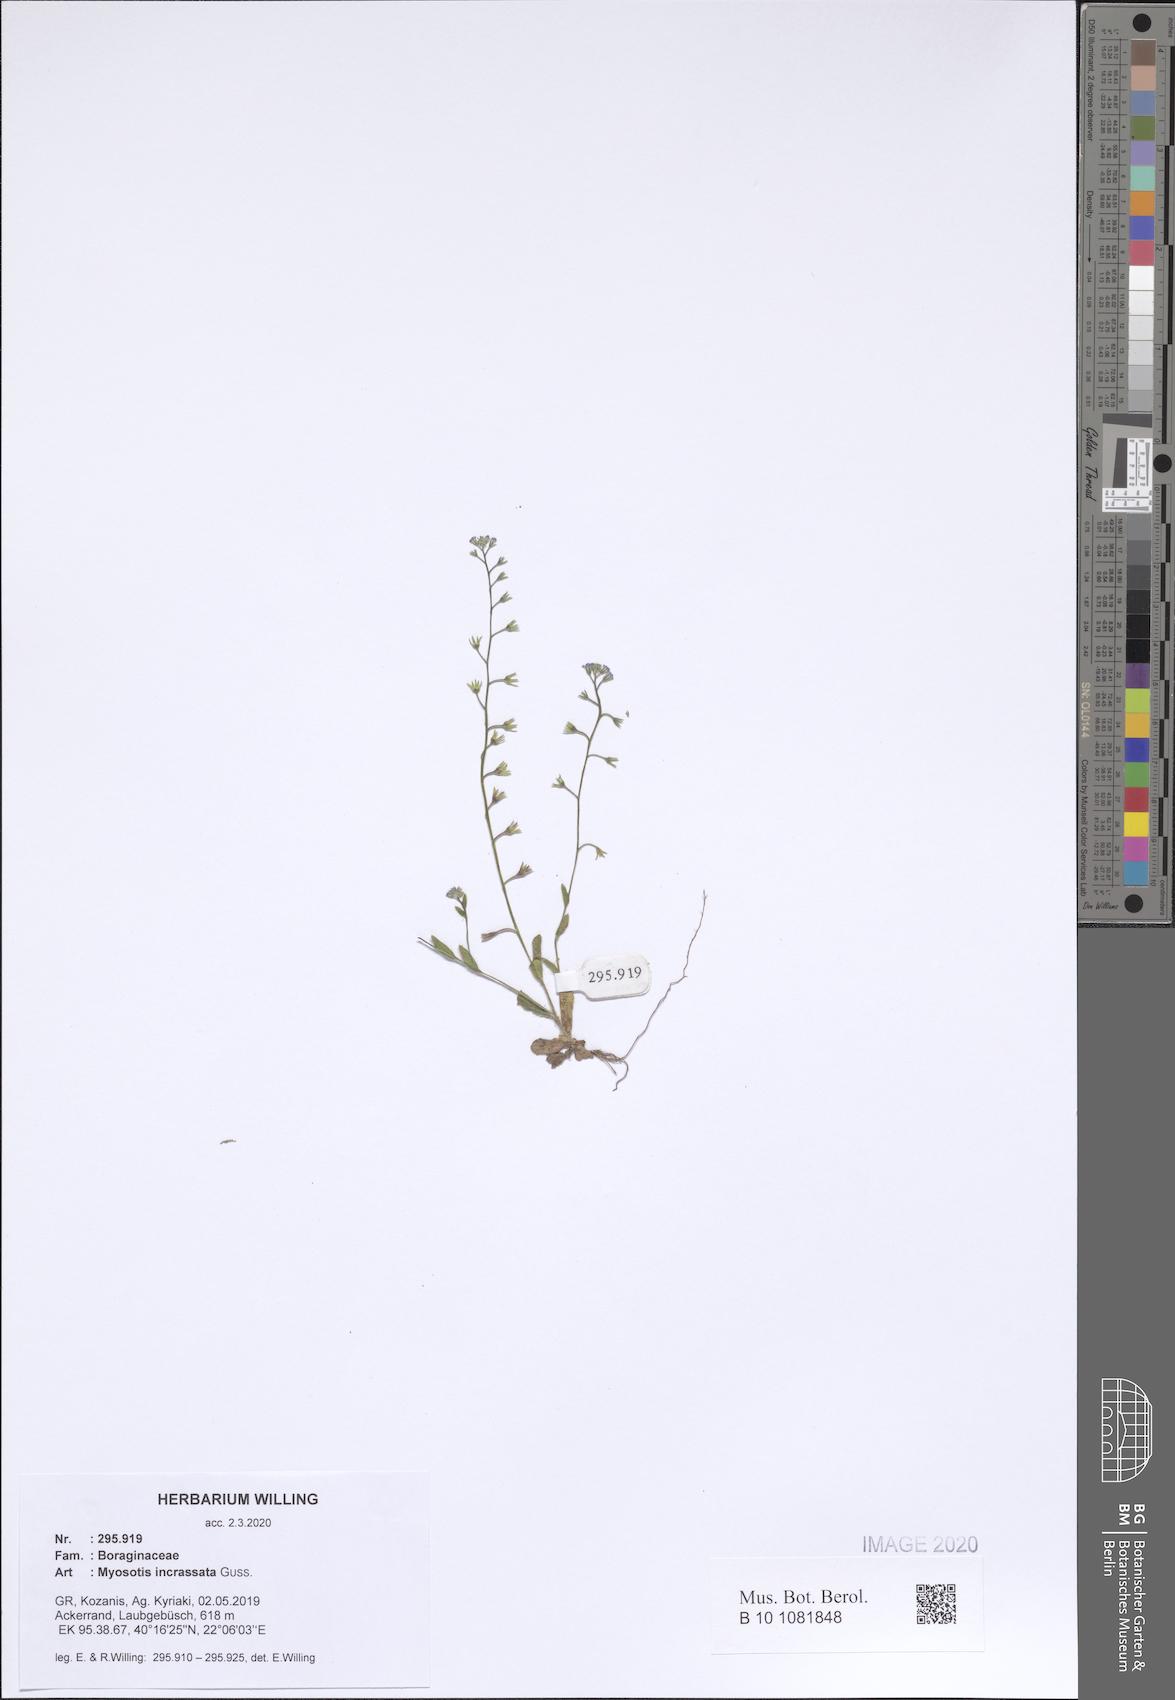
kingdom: Plantae
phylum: Tracheophyta
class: Magnoliopsida
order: Boraginales
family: Boraginaceae
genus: Myosotis
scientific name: Myosotis incrassata
